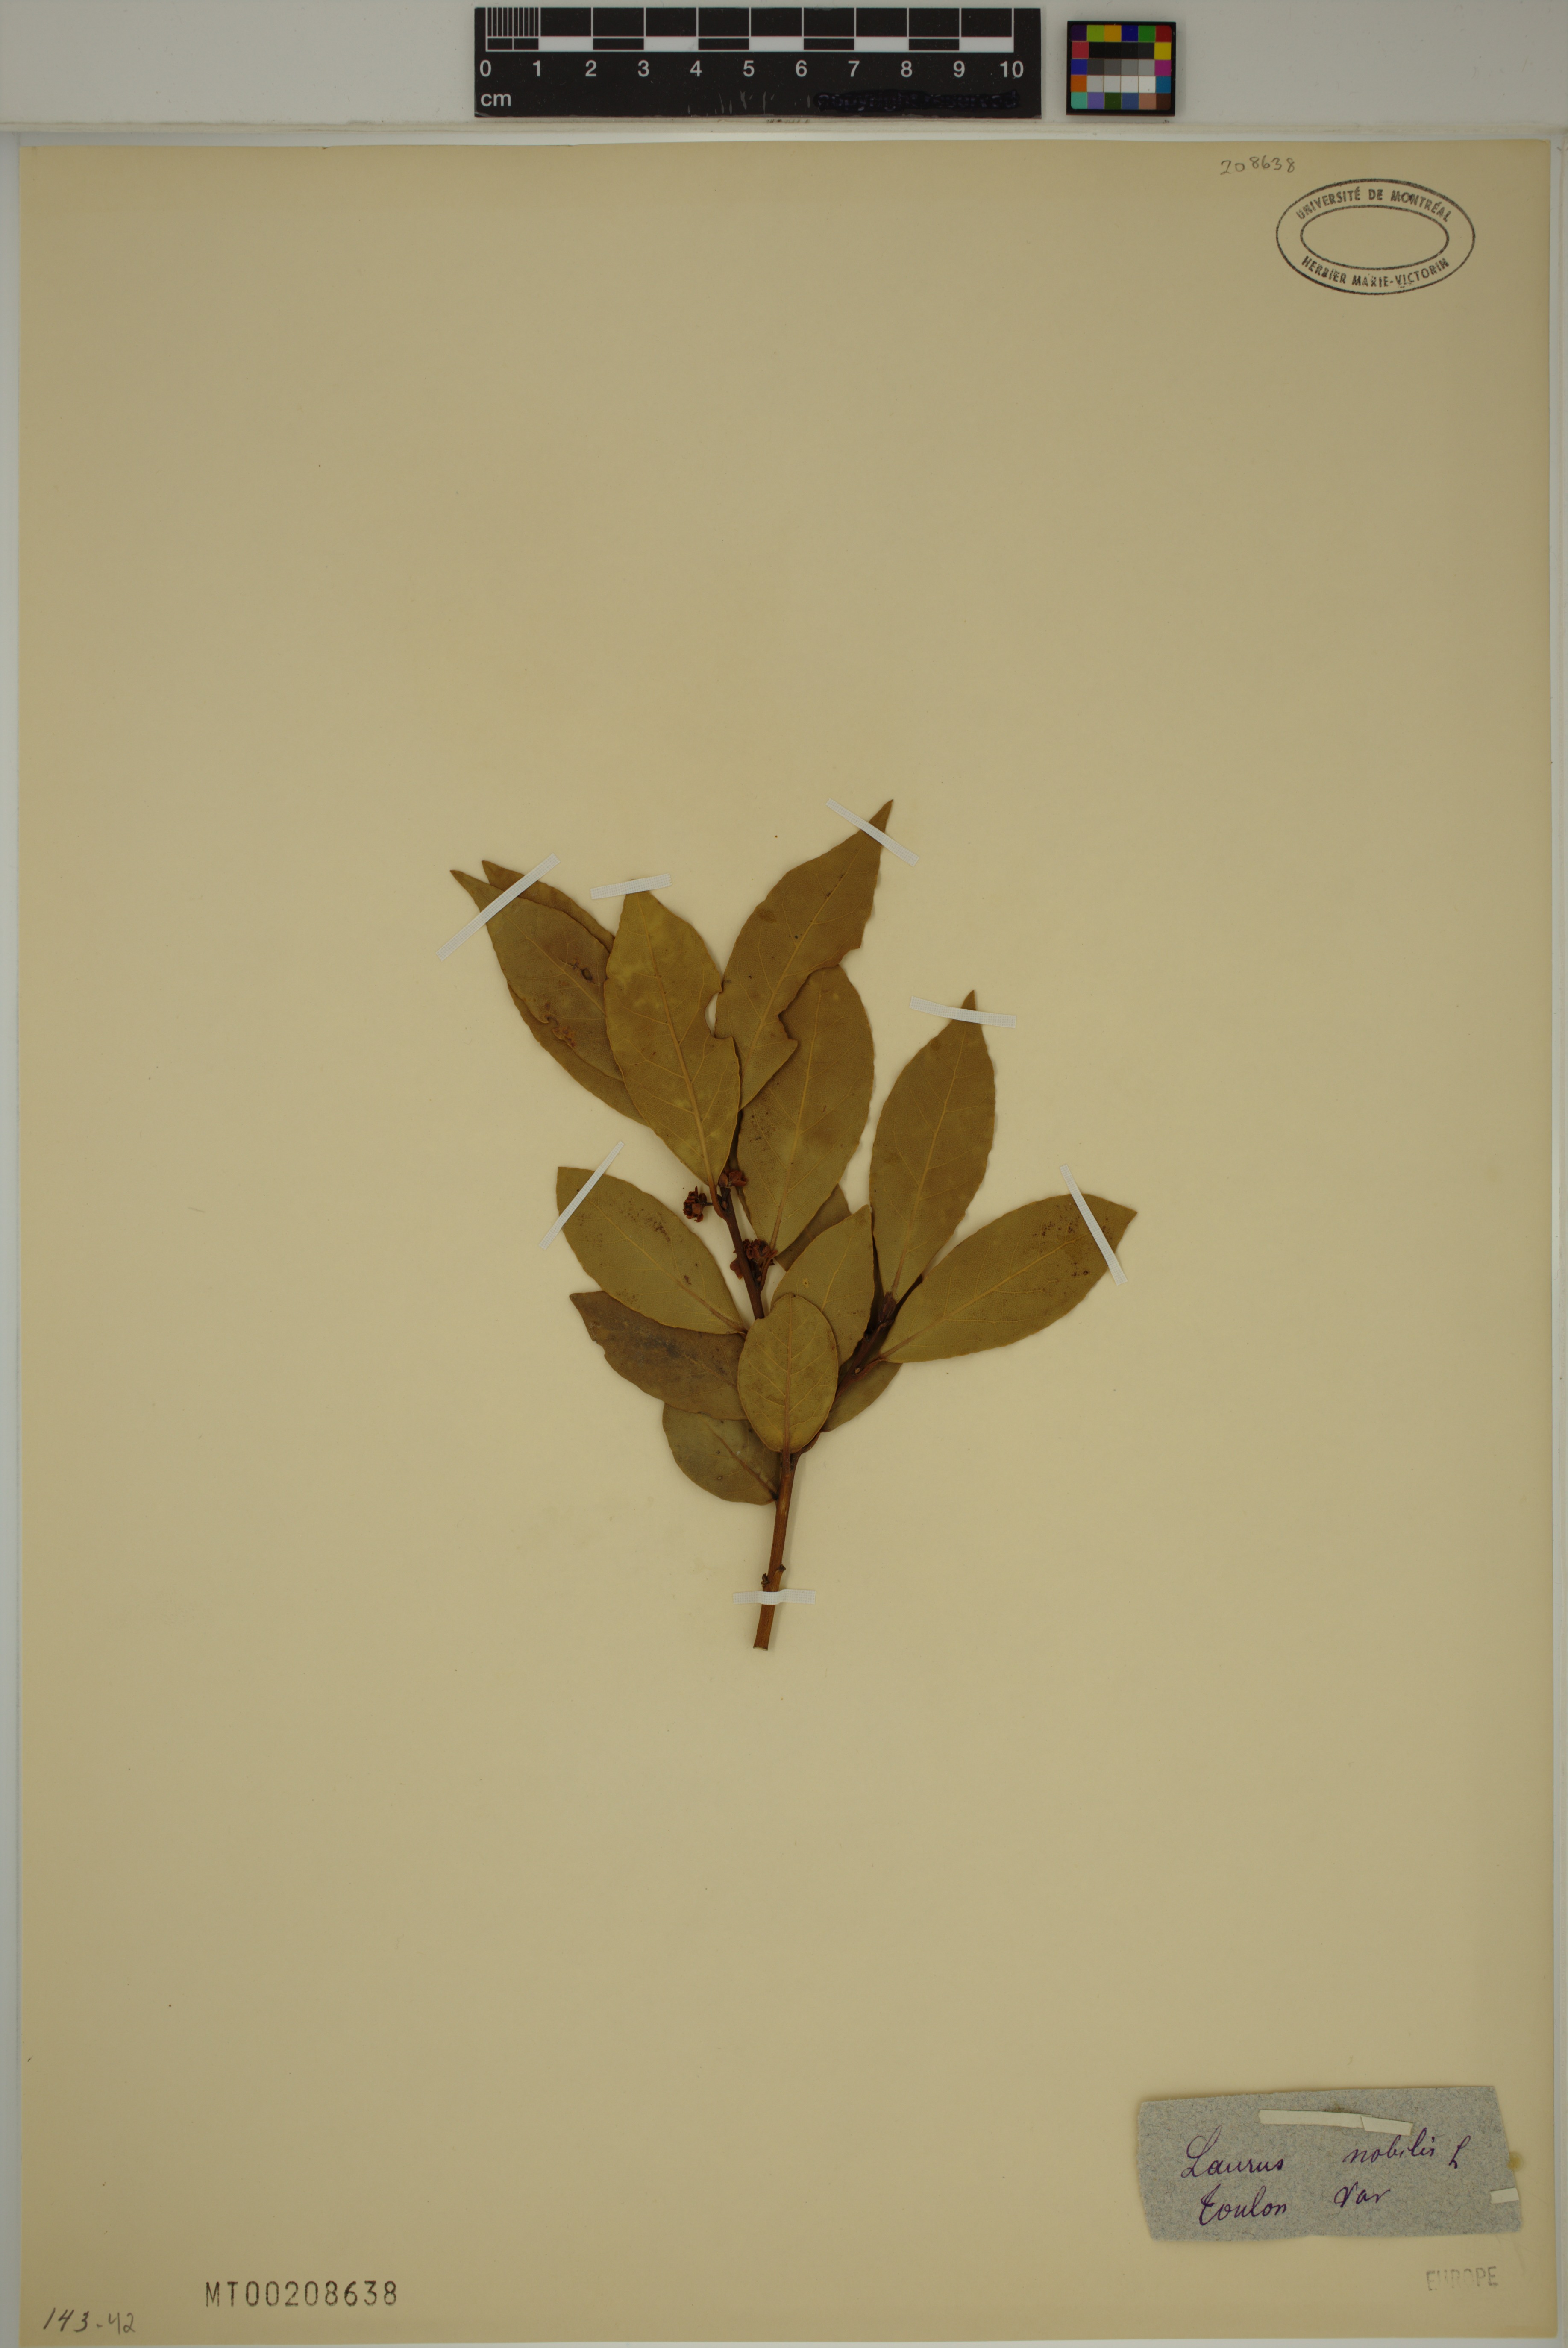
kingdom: Plantae
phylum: Tracheophyta
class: Magnoliopsida
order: Laurales
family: Lauraceae
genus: Laurus
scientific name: Laurus nobilis
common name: Bay
